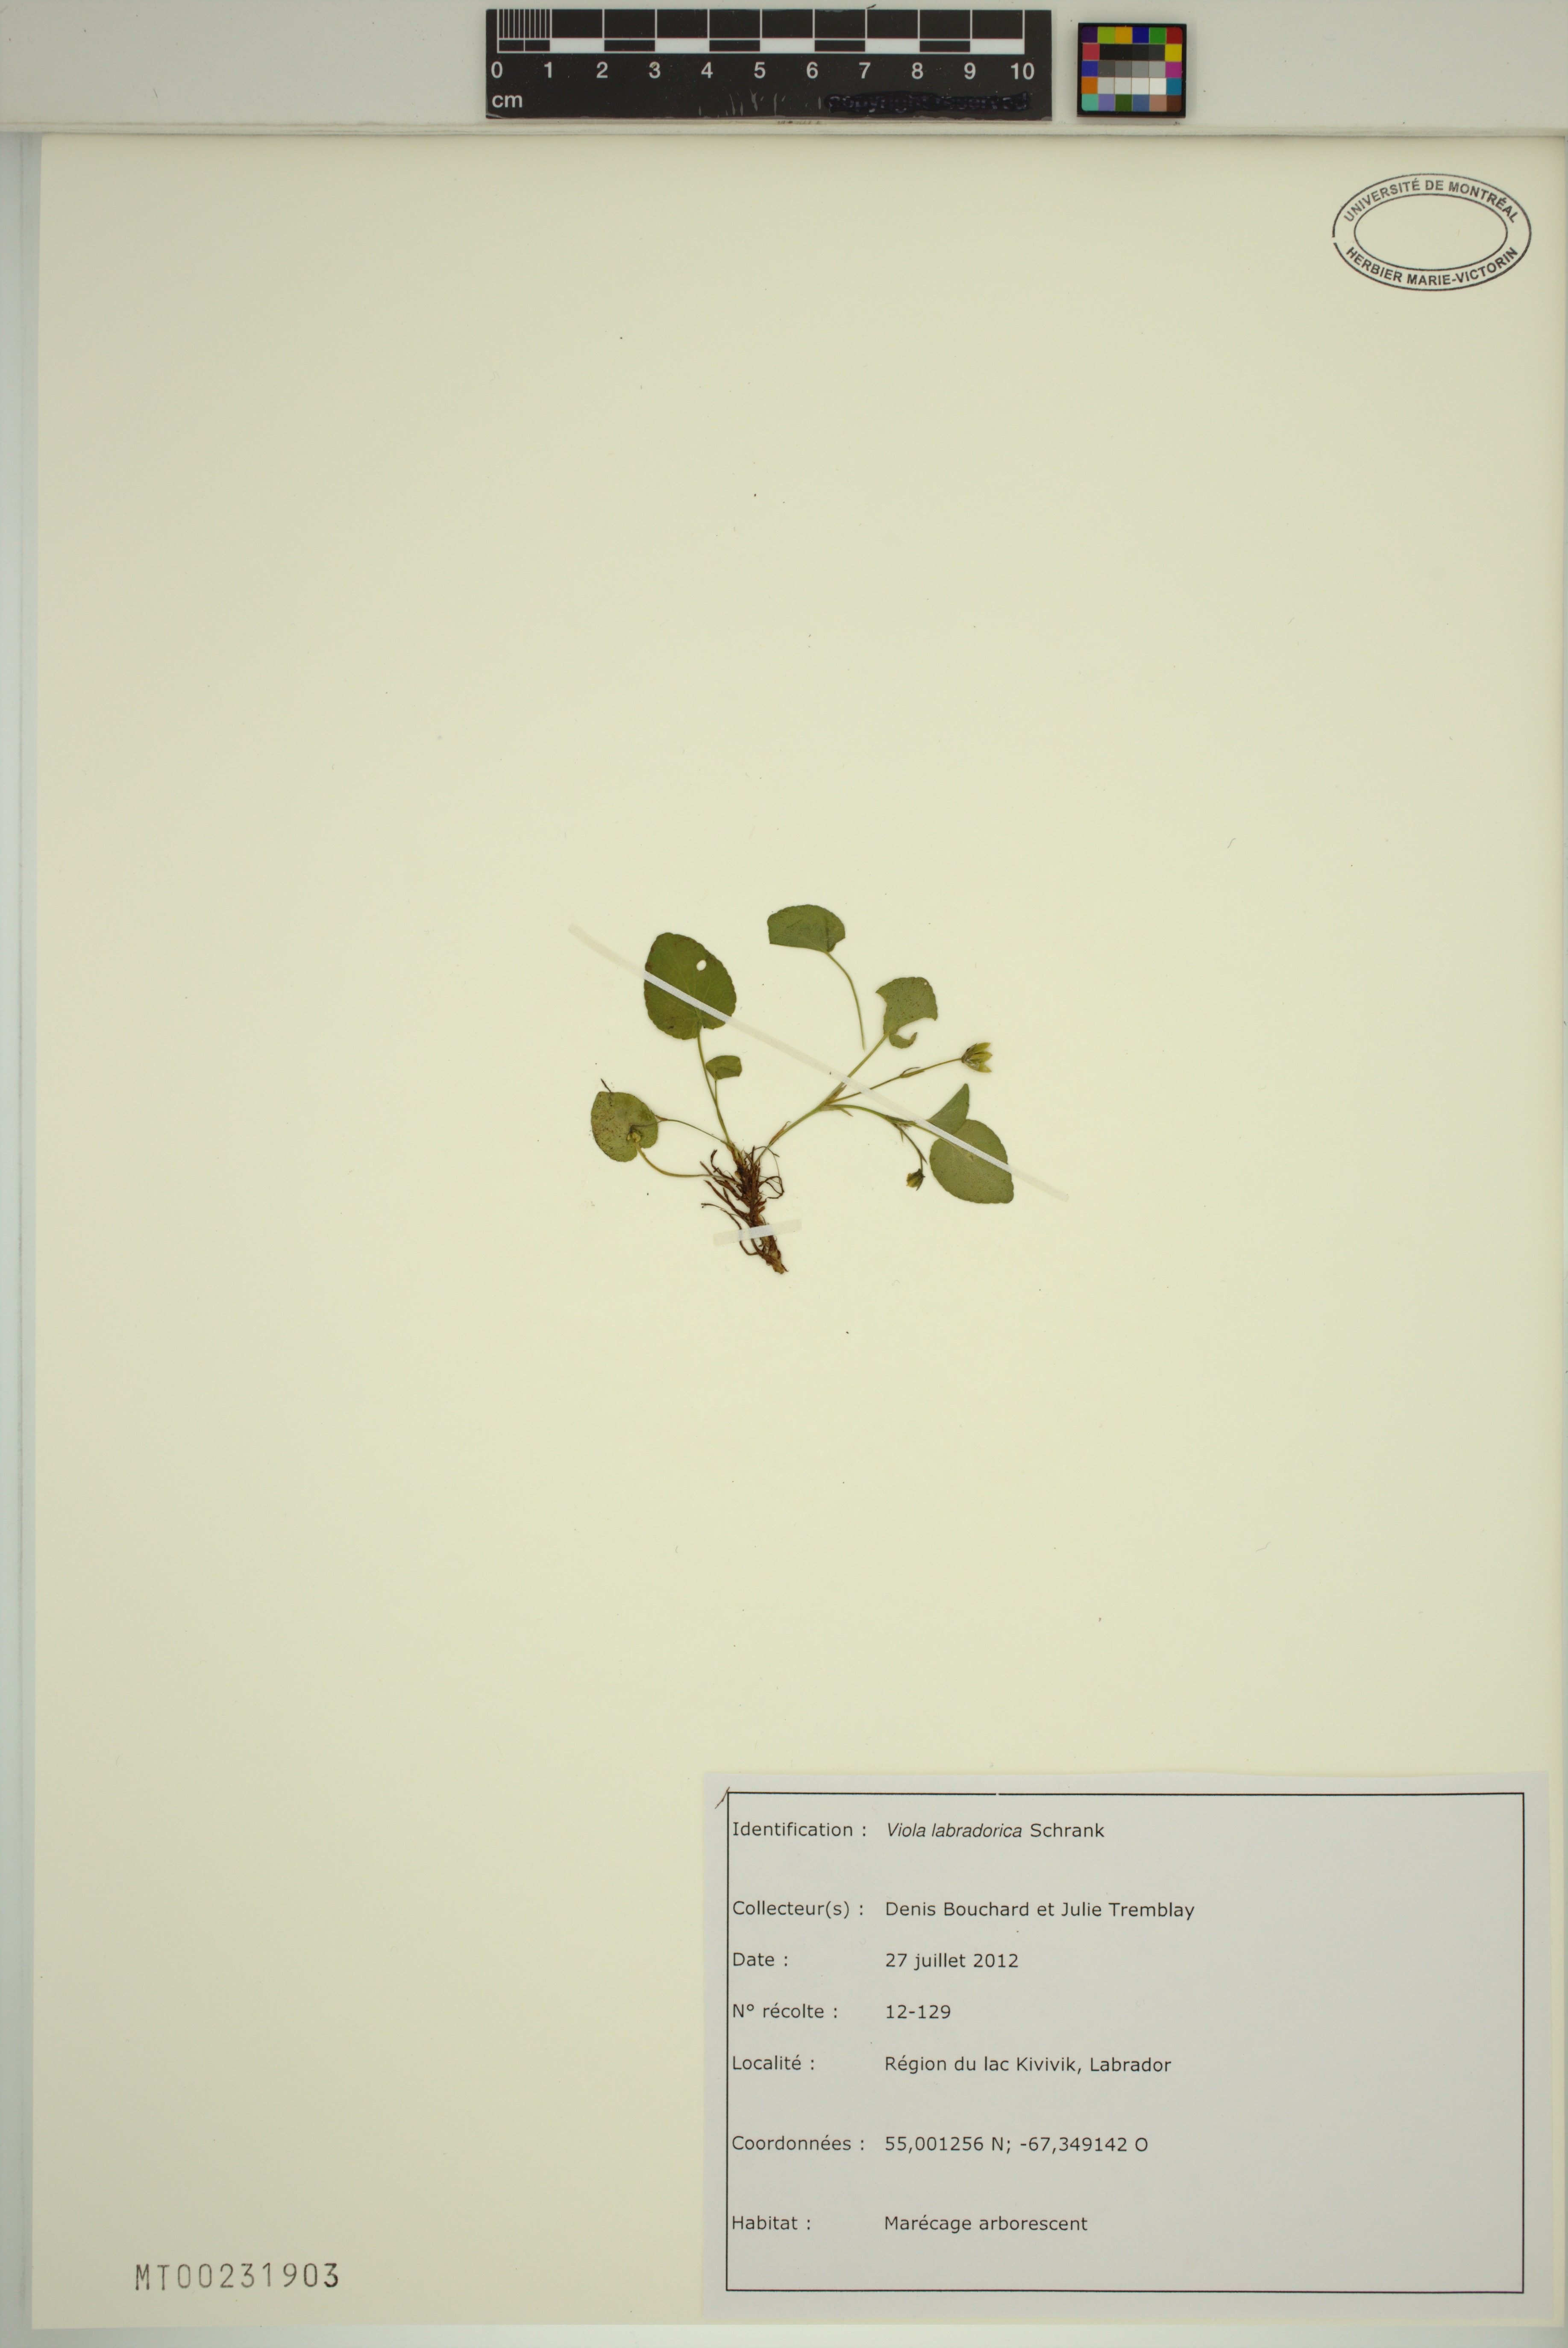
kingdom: Plantae
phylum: Tracheophyta
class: Magnoliopsida
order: Malpighiales
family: Violaceae
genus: Viola
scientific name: Viola labradorica
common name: Labrador violet
